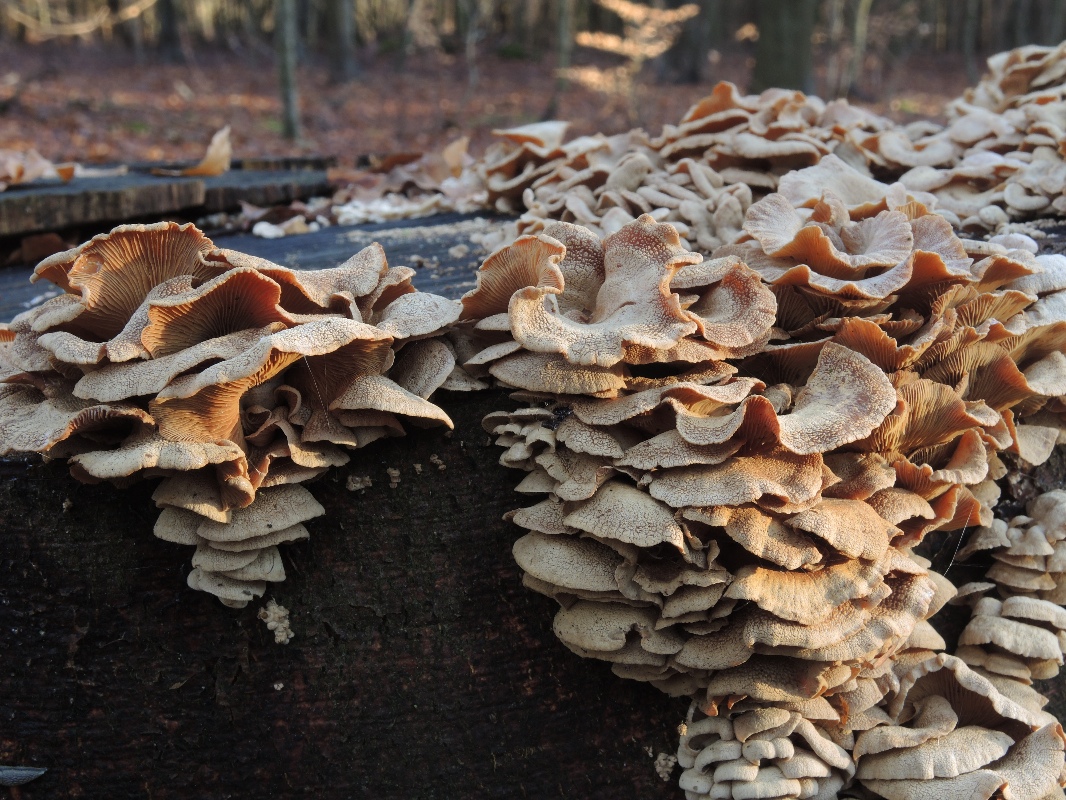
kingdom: Fungi
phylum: Basidiomycota
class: Agaricomycetes
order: Agaricales
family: Mycenaceae
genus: Panellus
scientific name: Panellus stipticus
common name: kliddet epaulethat
